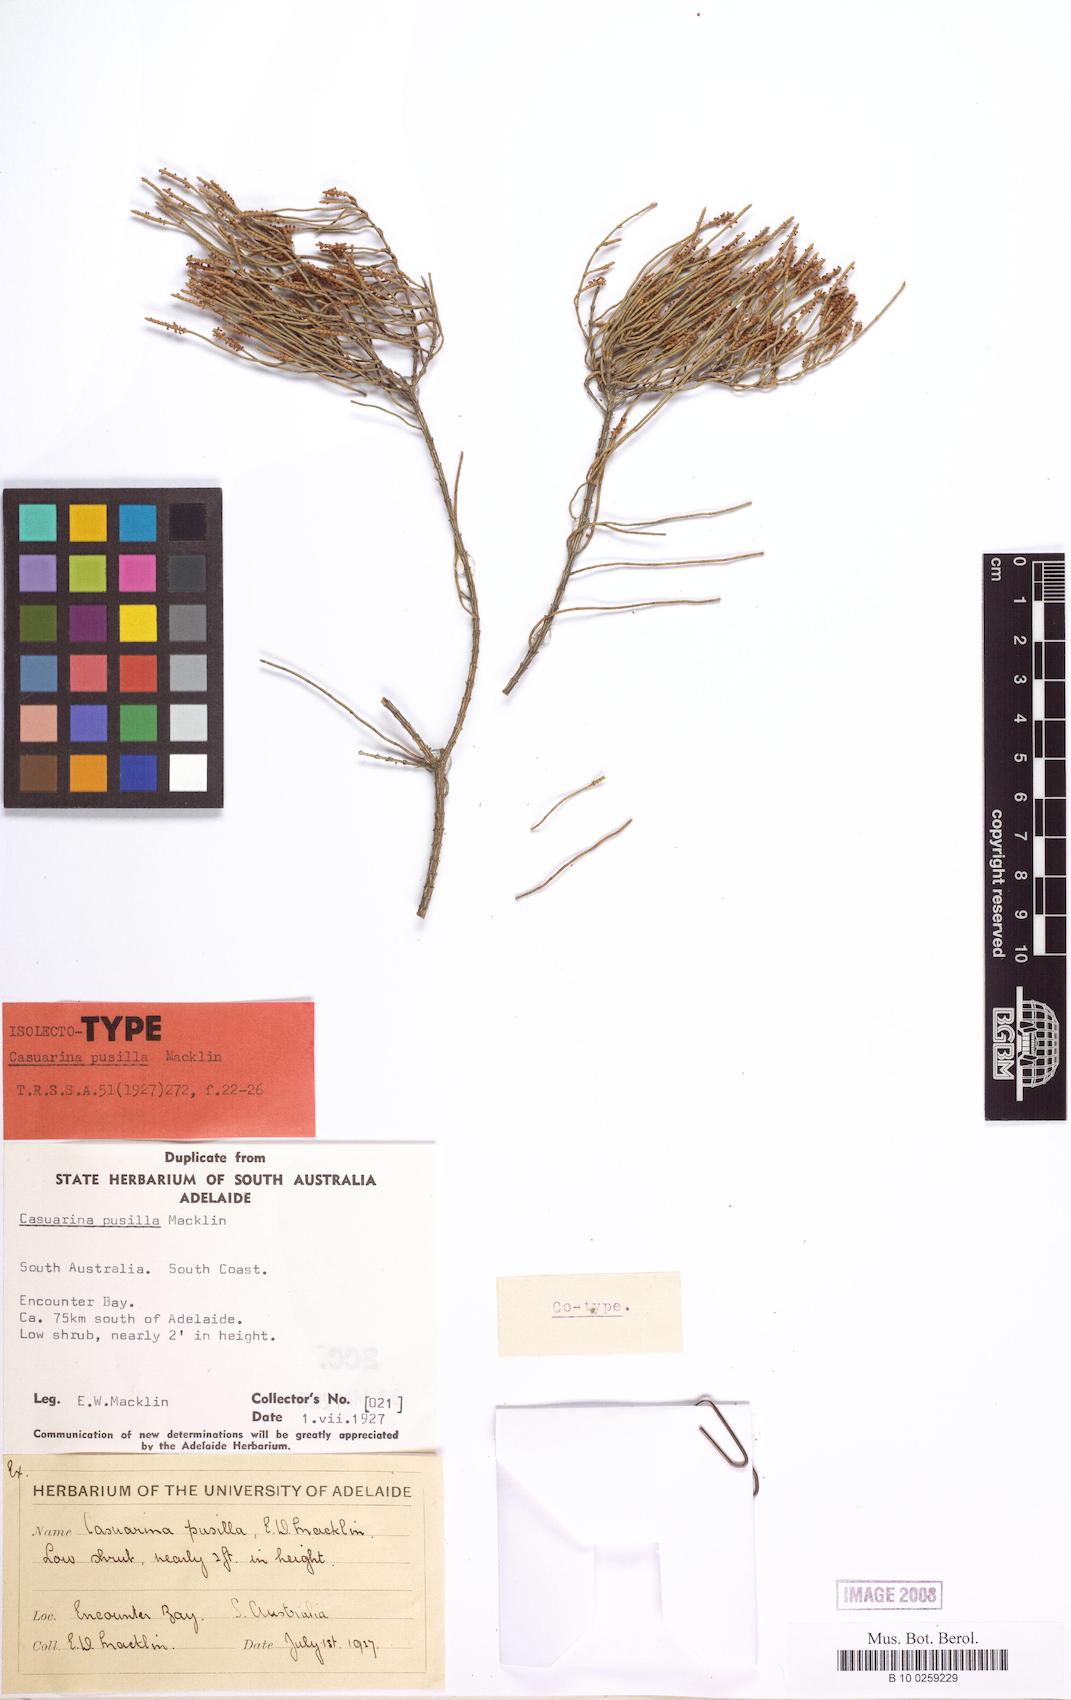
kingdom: Plantae
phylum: Tracheophyta
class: Magnoliopsida
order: Fagales
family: Casuarinaceae
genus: Allocasuarina
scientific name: Allocasuarina pusilla
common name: Dwarf she-oak
